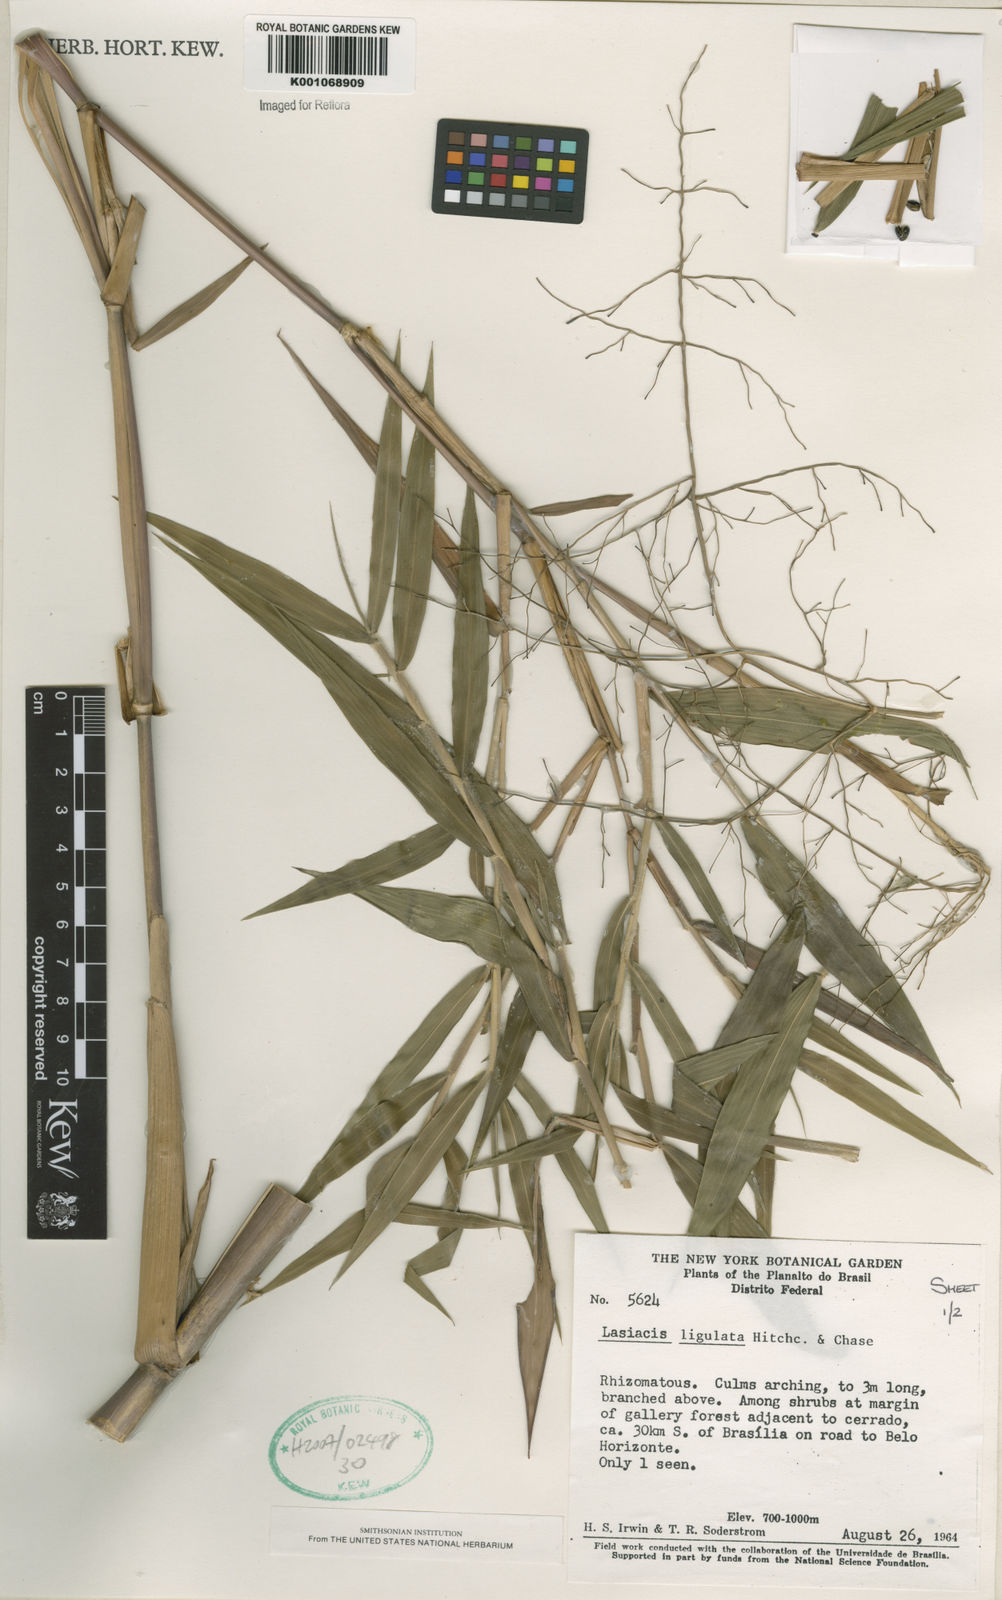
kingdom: Plantae
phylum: Tracheophyta
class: Liliopsida
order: Poales
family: Poaceae
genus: Lasiacis
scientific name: Lasiacis ligulata
